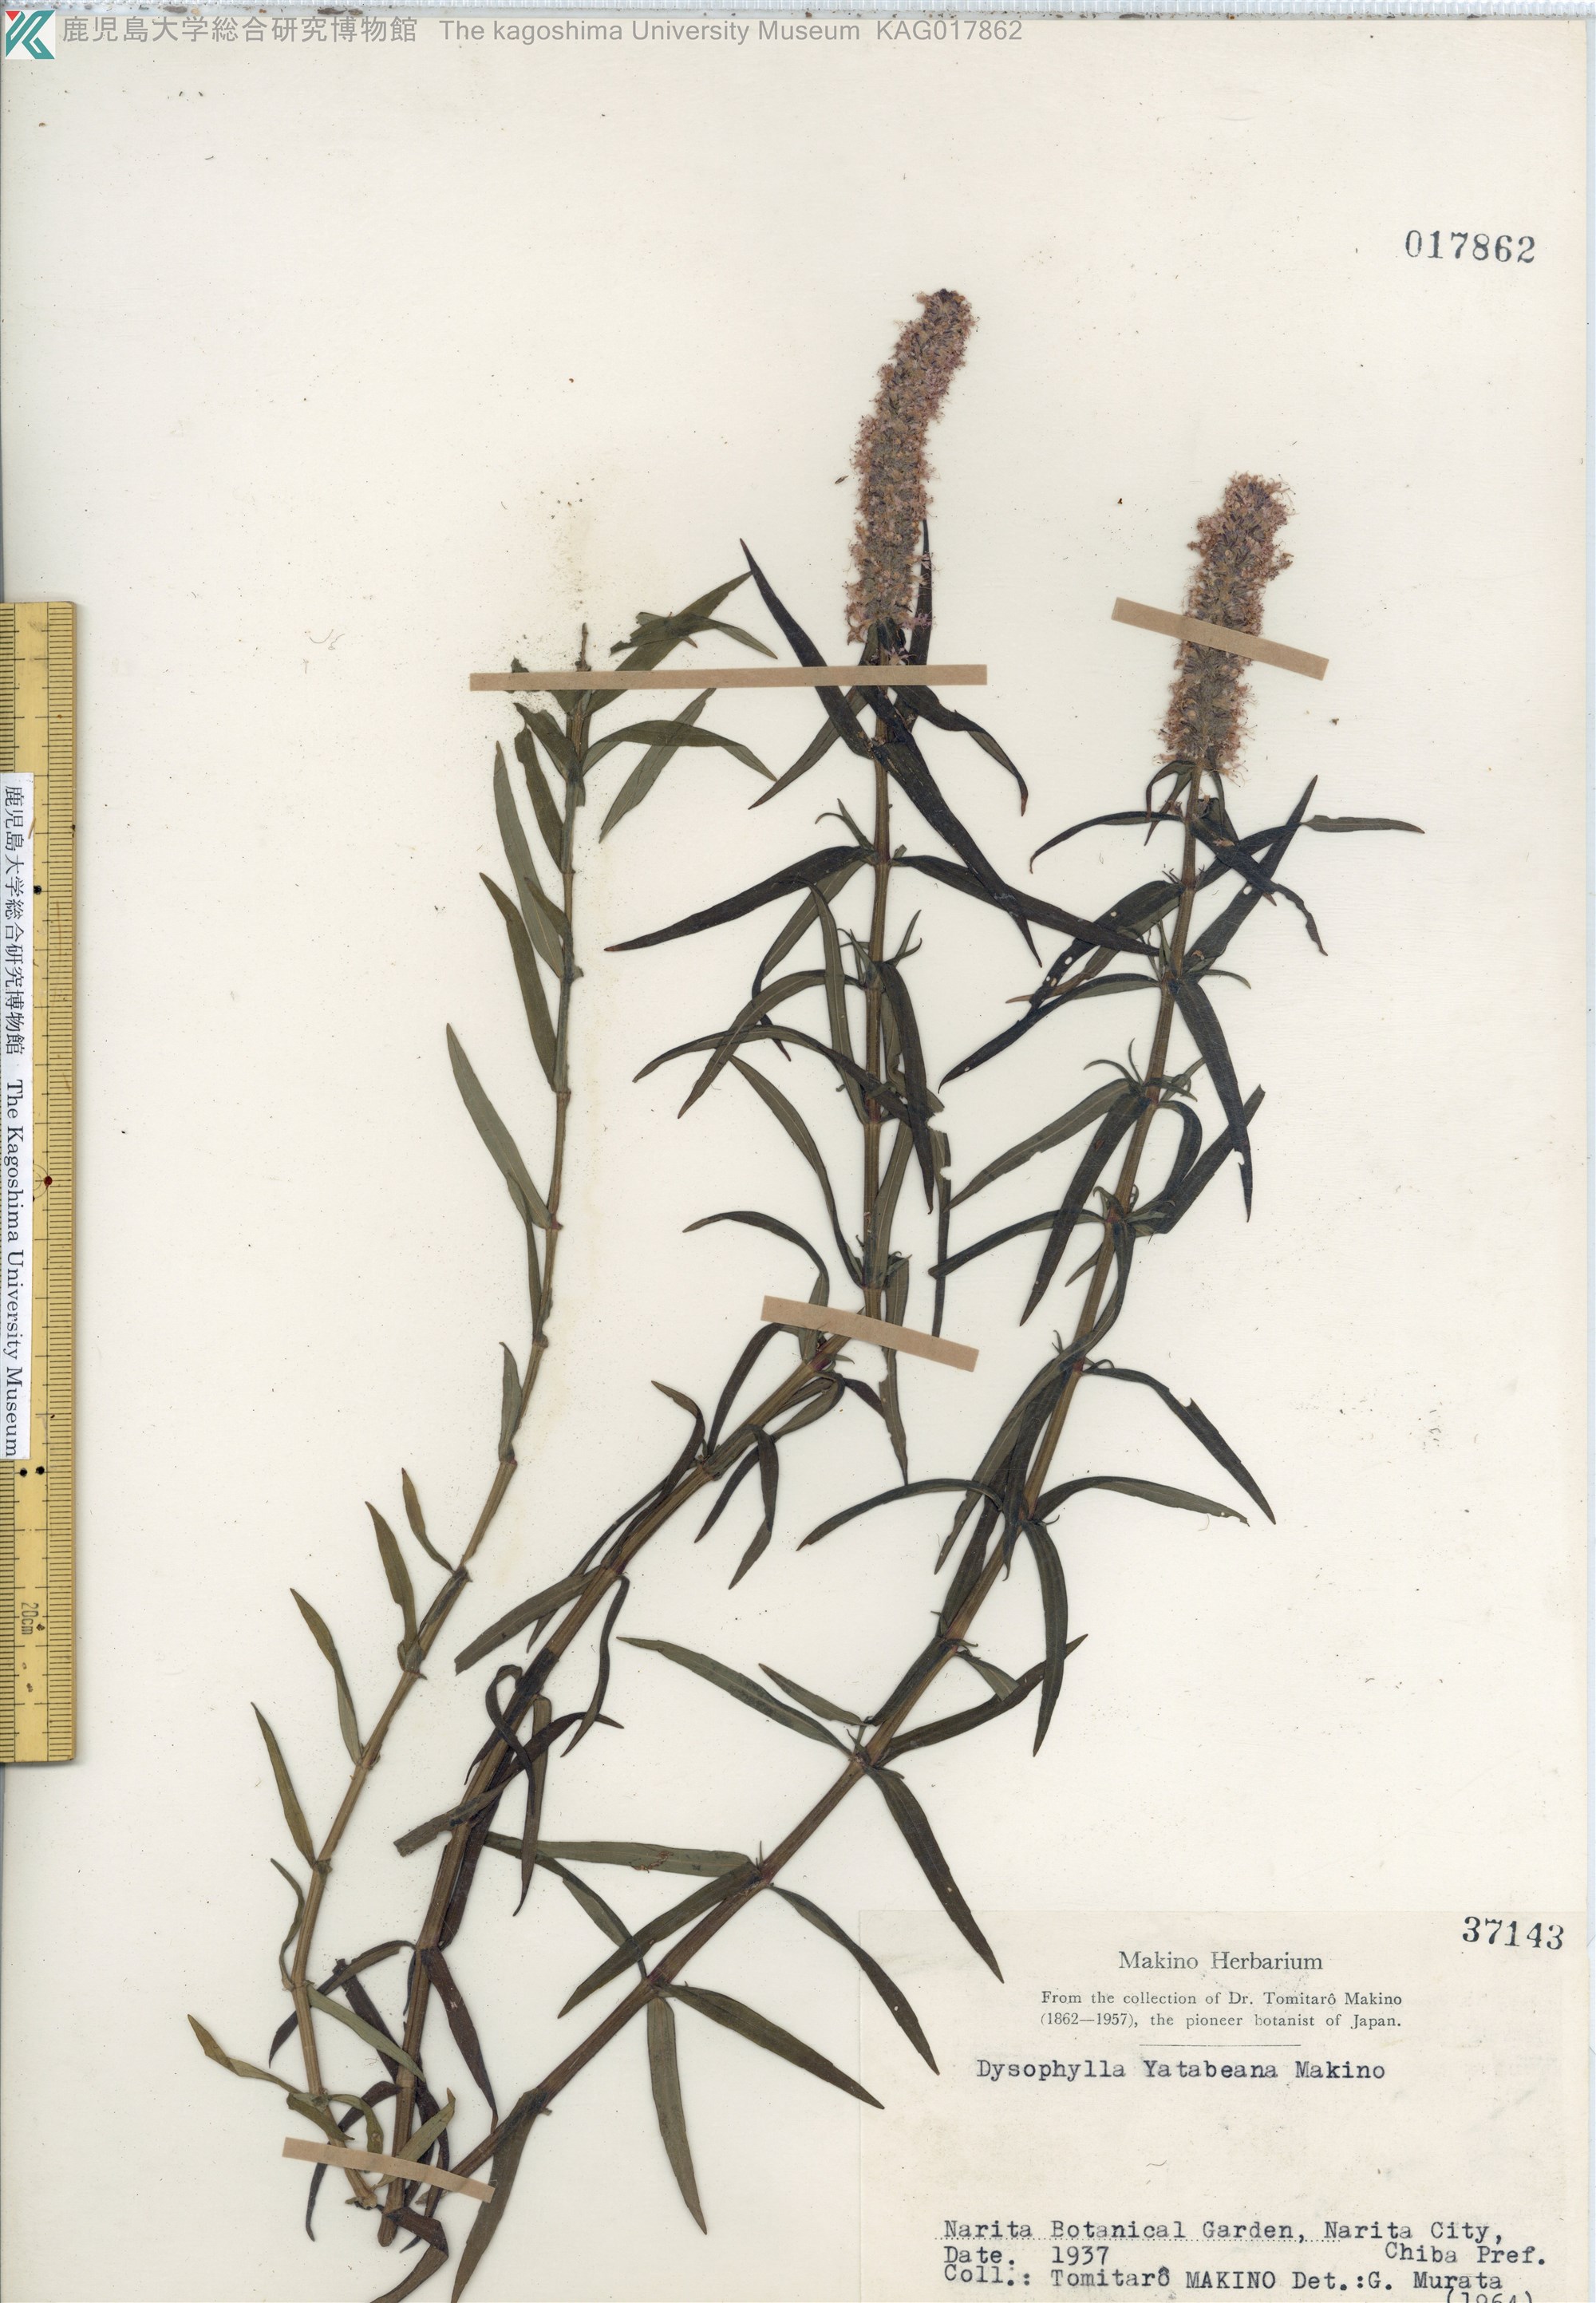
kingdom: Plantae
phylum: Tracheophyta
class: Magnoliopsida
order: Lamiales
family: Lamiaceae
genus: Pogostemon
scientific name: Pogostemon yatabeanus
